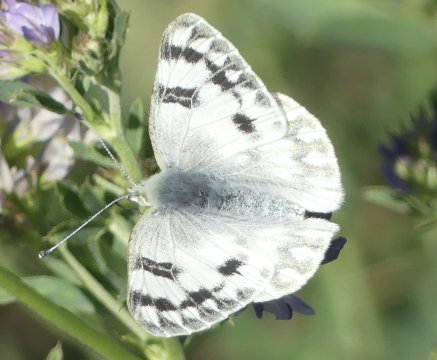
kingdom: Animalia
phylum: Arthropoda
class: Insecta
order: Lepidoptera
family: Pieridae
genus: Pontia
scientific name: Pontia occidentalis
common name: Western White
